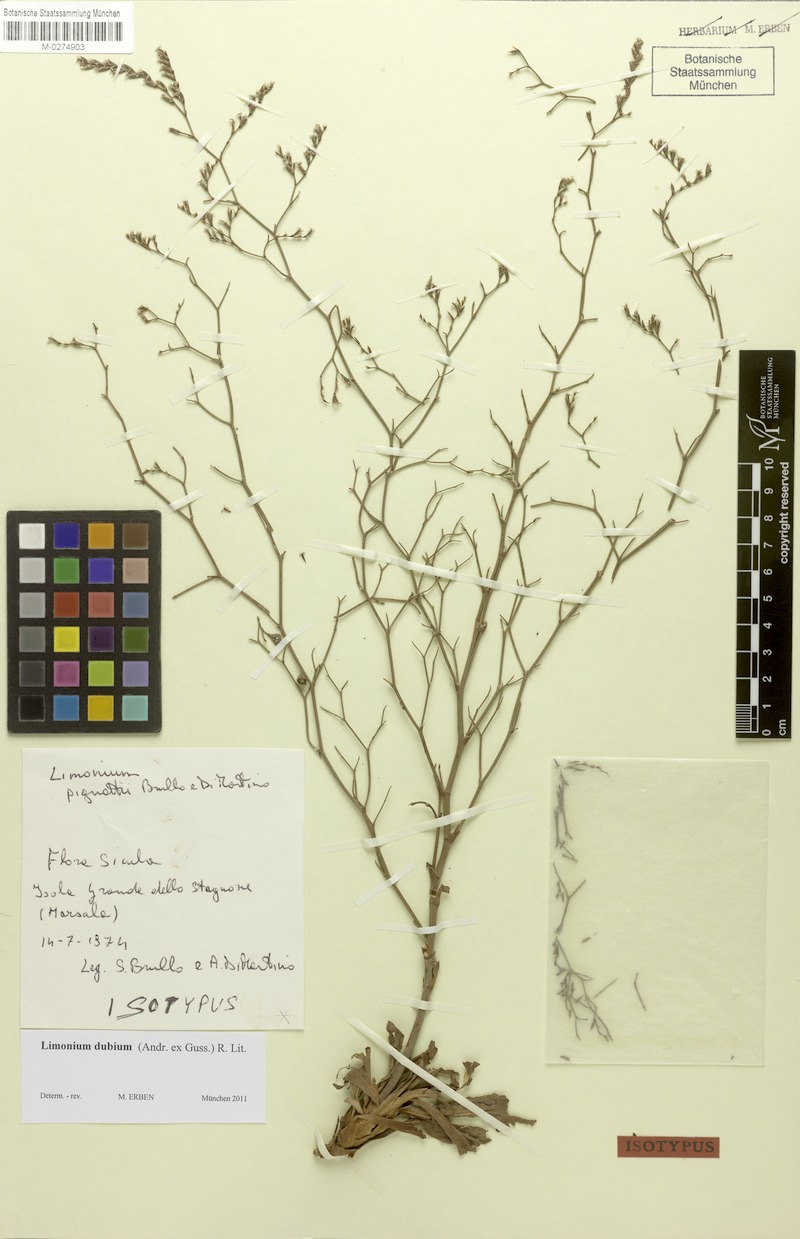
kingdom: Plantae
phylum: Tracheophyta
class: Magnoliopsida
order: Caryophyllales
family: Plumbaginaceae
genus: Limonium
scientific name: Limonium dubium
